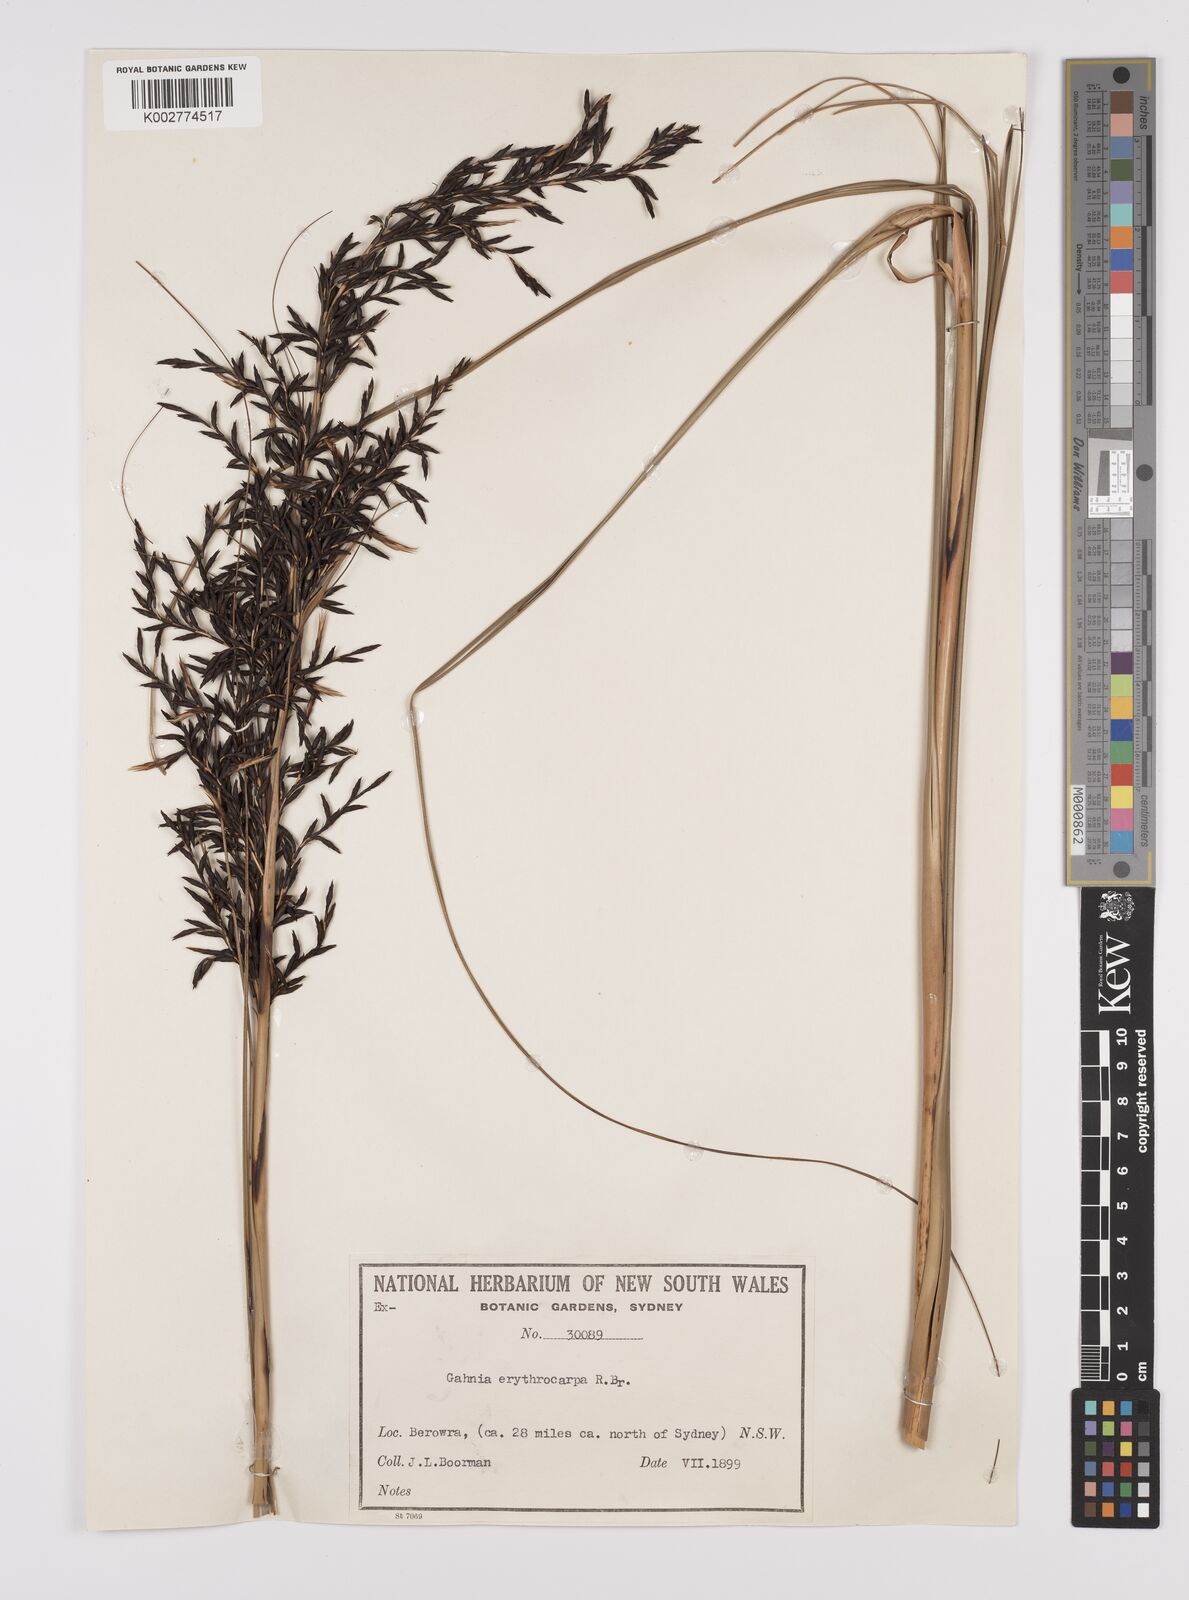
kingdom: Plantae
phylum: Tracheophyta
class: Liliopsida
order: Poales
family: Cyperaceae
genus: Gahnia
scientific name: Gahnia erythrocarpa
